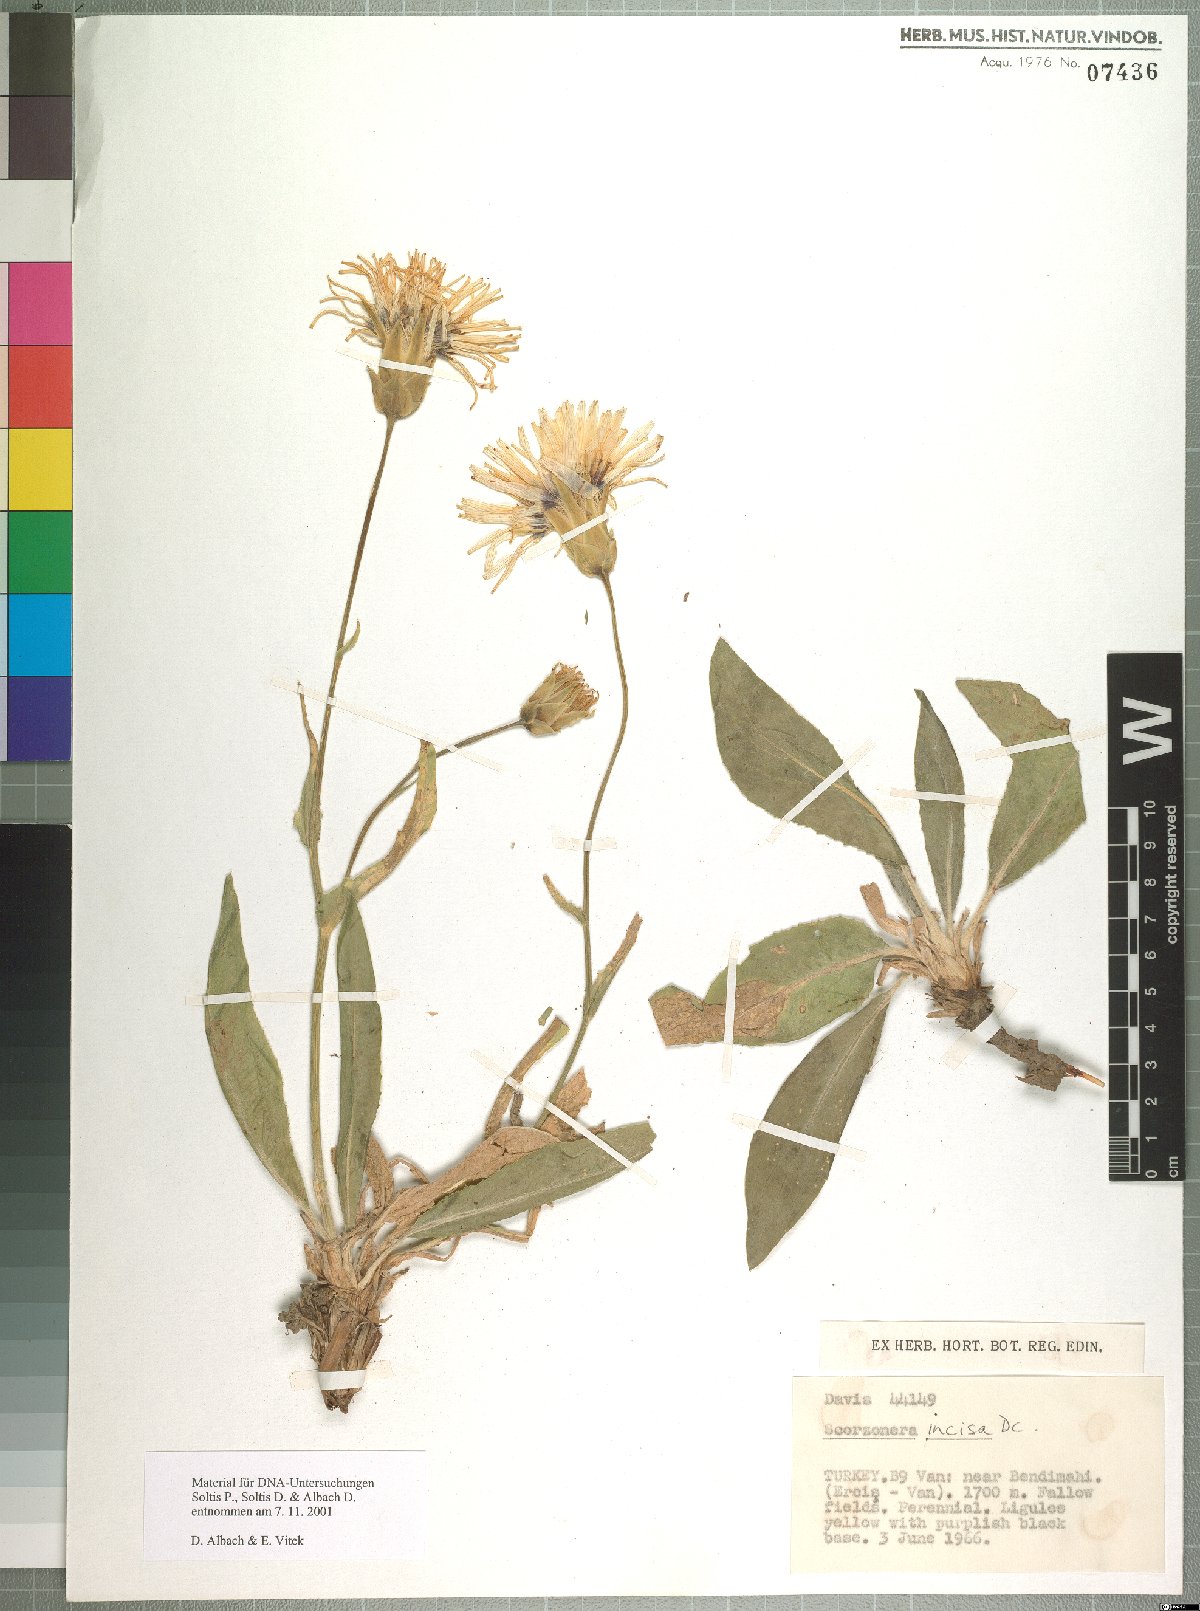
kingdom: Plantae
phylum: Tracheophyta
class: Magnoliopsida
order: Asterales
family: Asteraceae
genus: Aslia
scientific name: Aslia incisa
